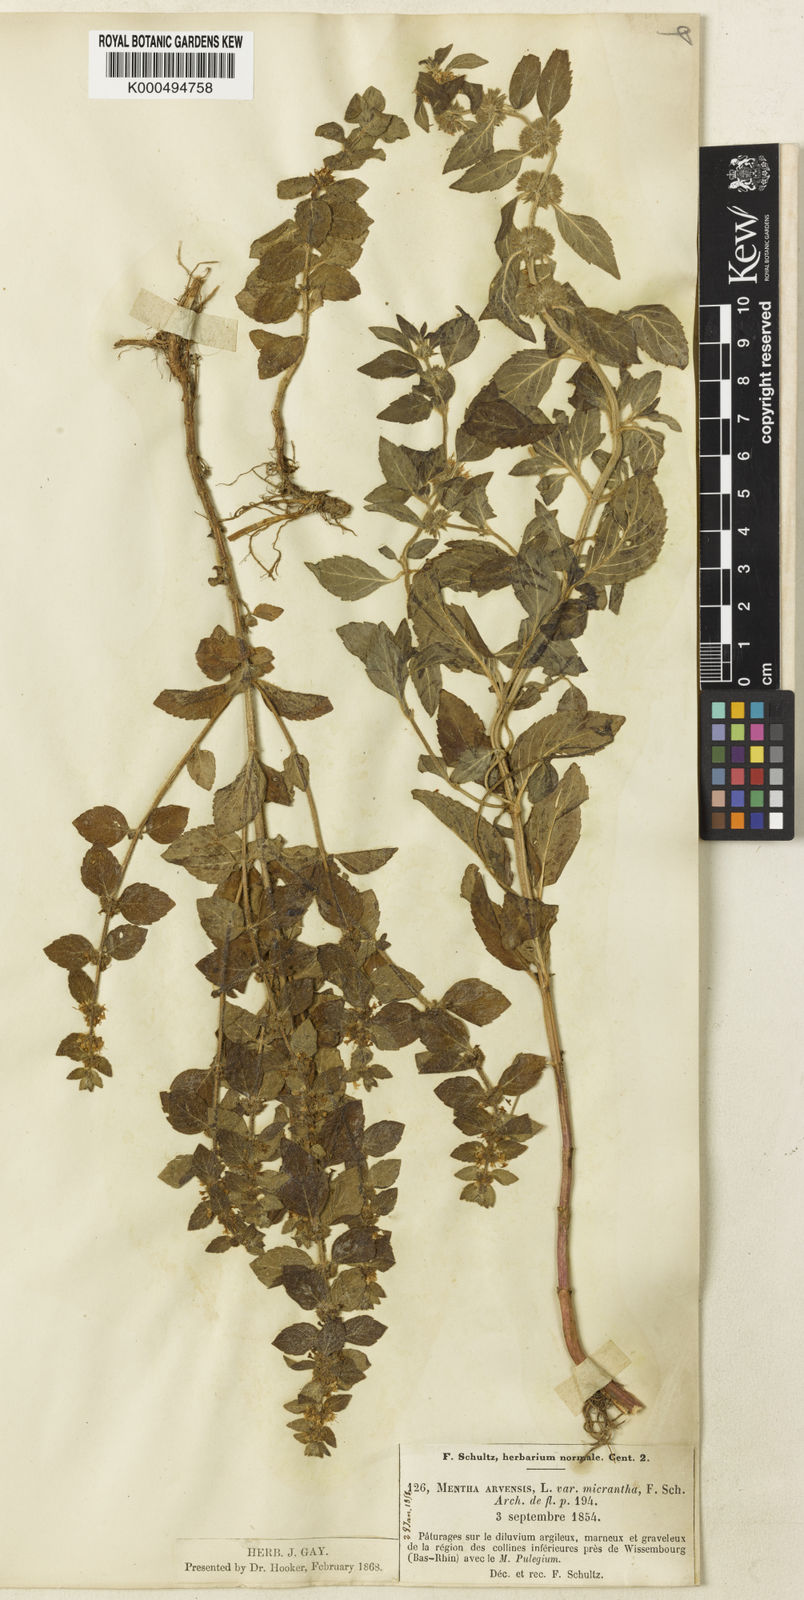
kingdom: Plantae
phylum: Tracheophyta
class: Magnoliopsida
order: Lamiales
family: Lamiaceae
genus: Mentha
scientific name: Mentha arvensis
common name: Corn mint
